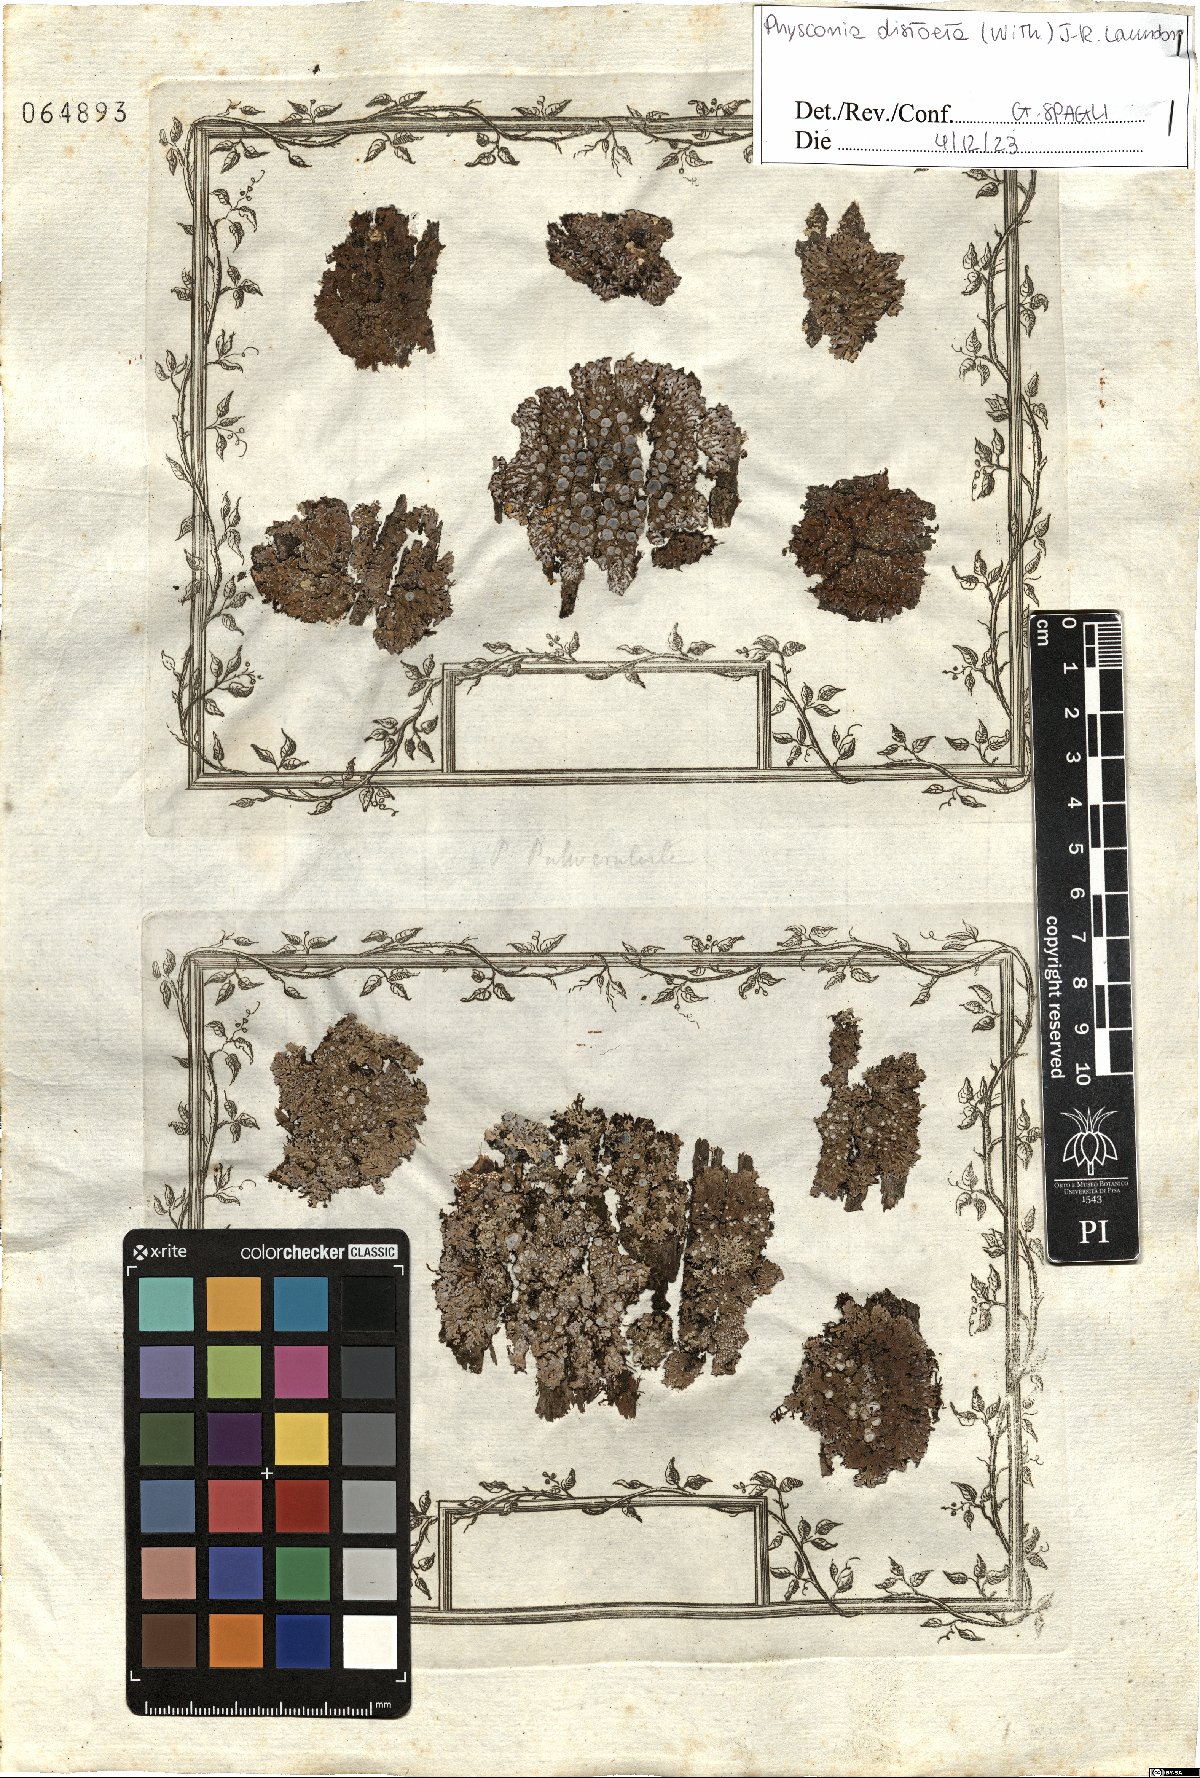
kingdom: Fungi
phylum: Ascomycota
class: Lecanoromycetes
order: Caliciales
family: Physciaceae
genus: Physconia
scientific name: Physconia distorta
